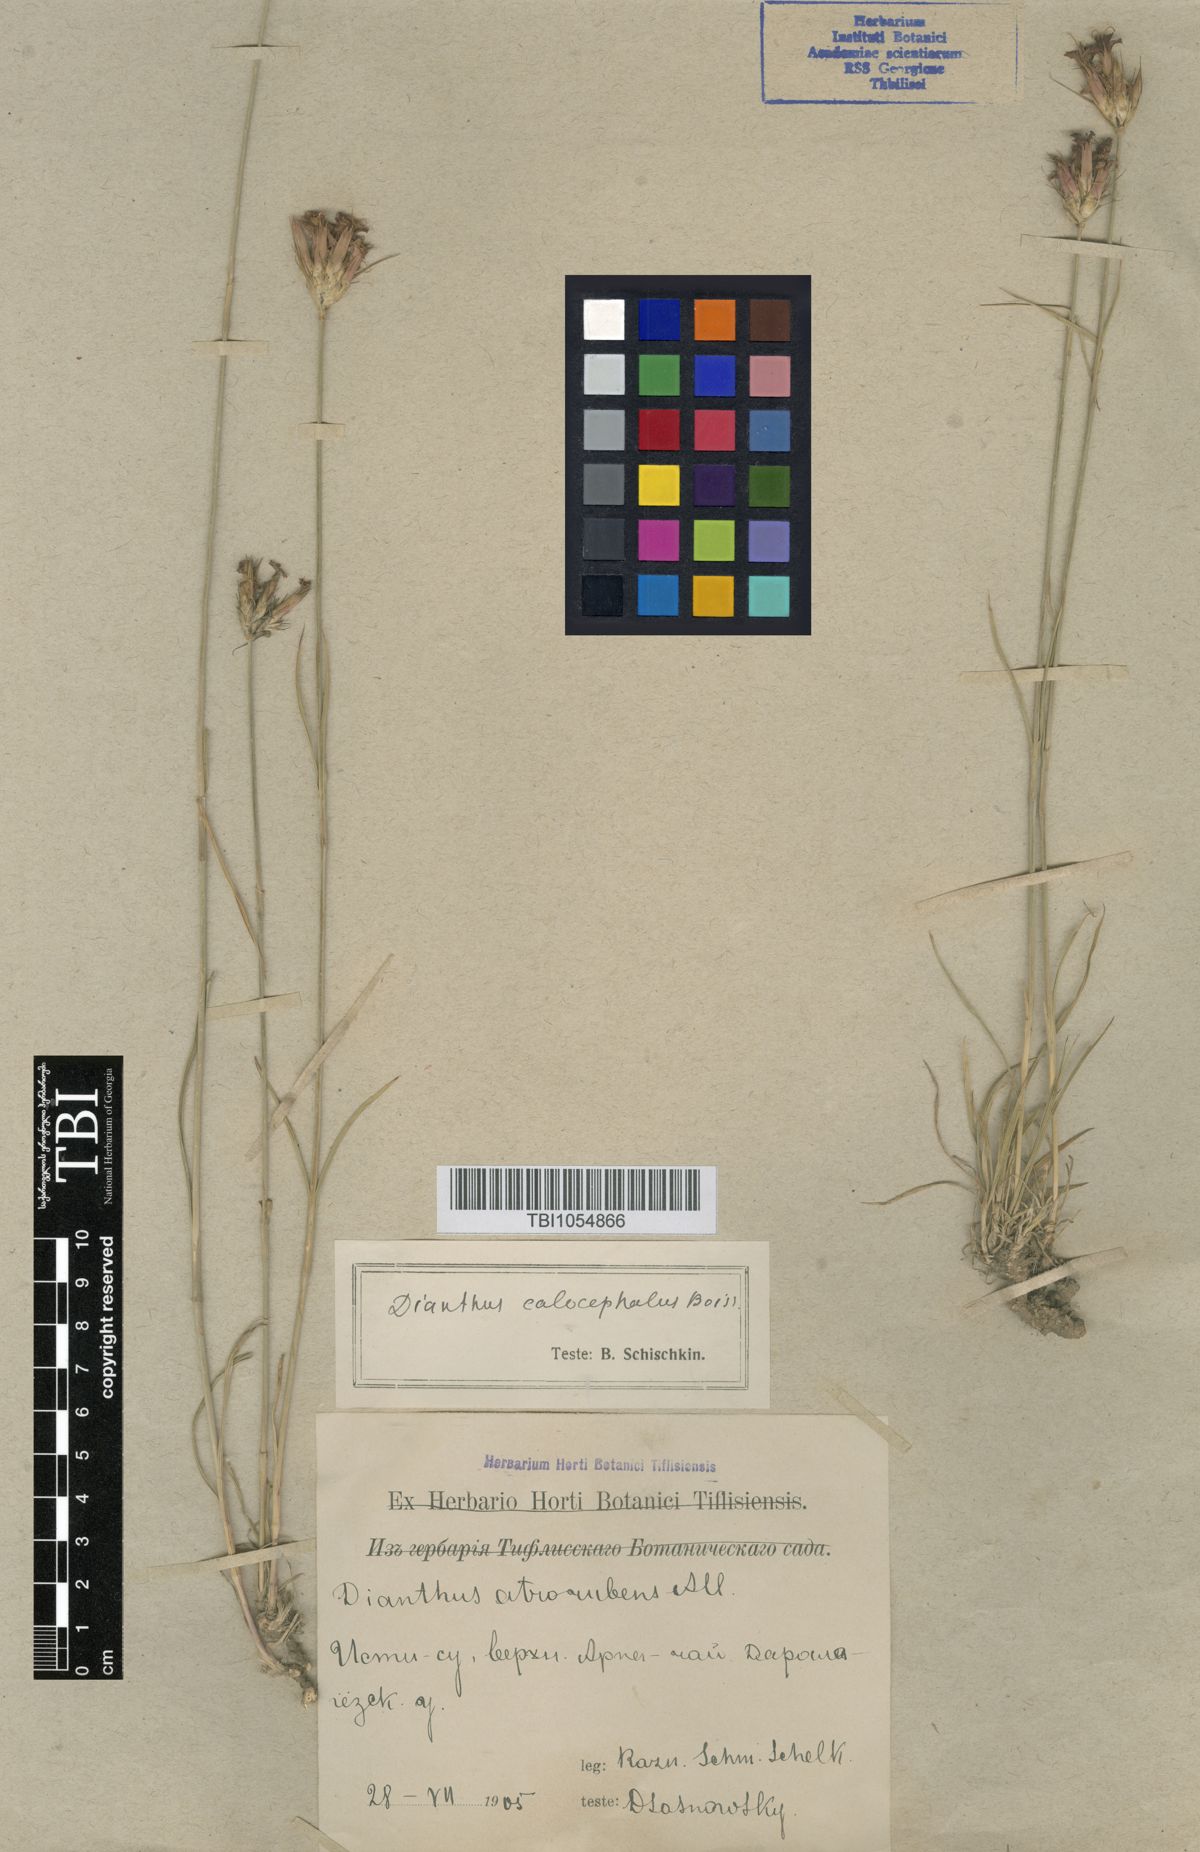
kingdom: Plantae
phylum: Tracheophyta
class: Magnoliopsida
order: Caryophyllales
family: Caryophyllaceae
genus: Dianthus
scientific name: Dianthus cruentus
